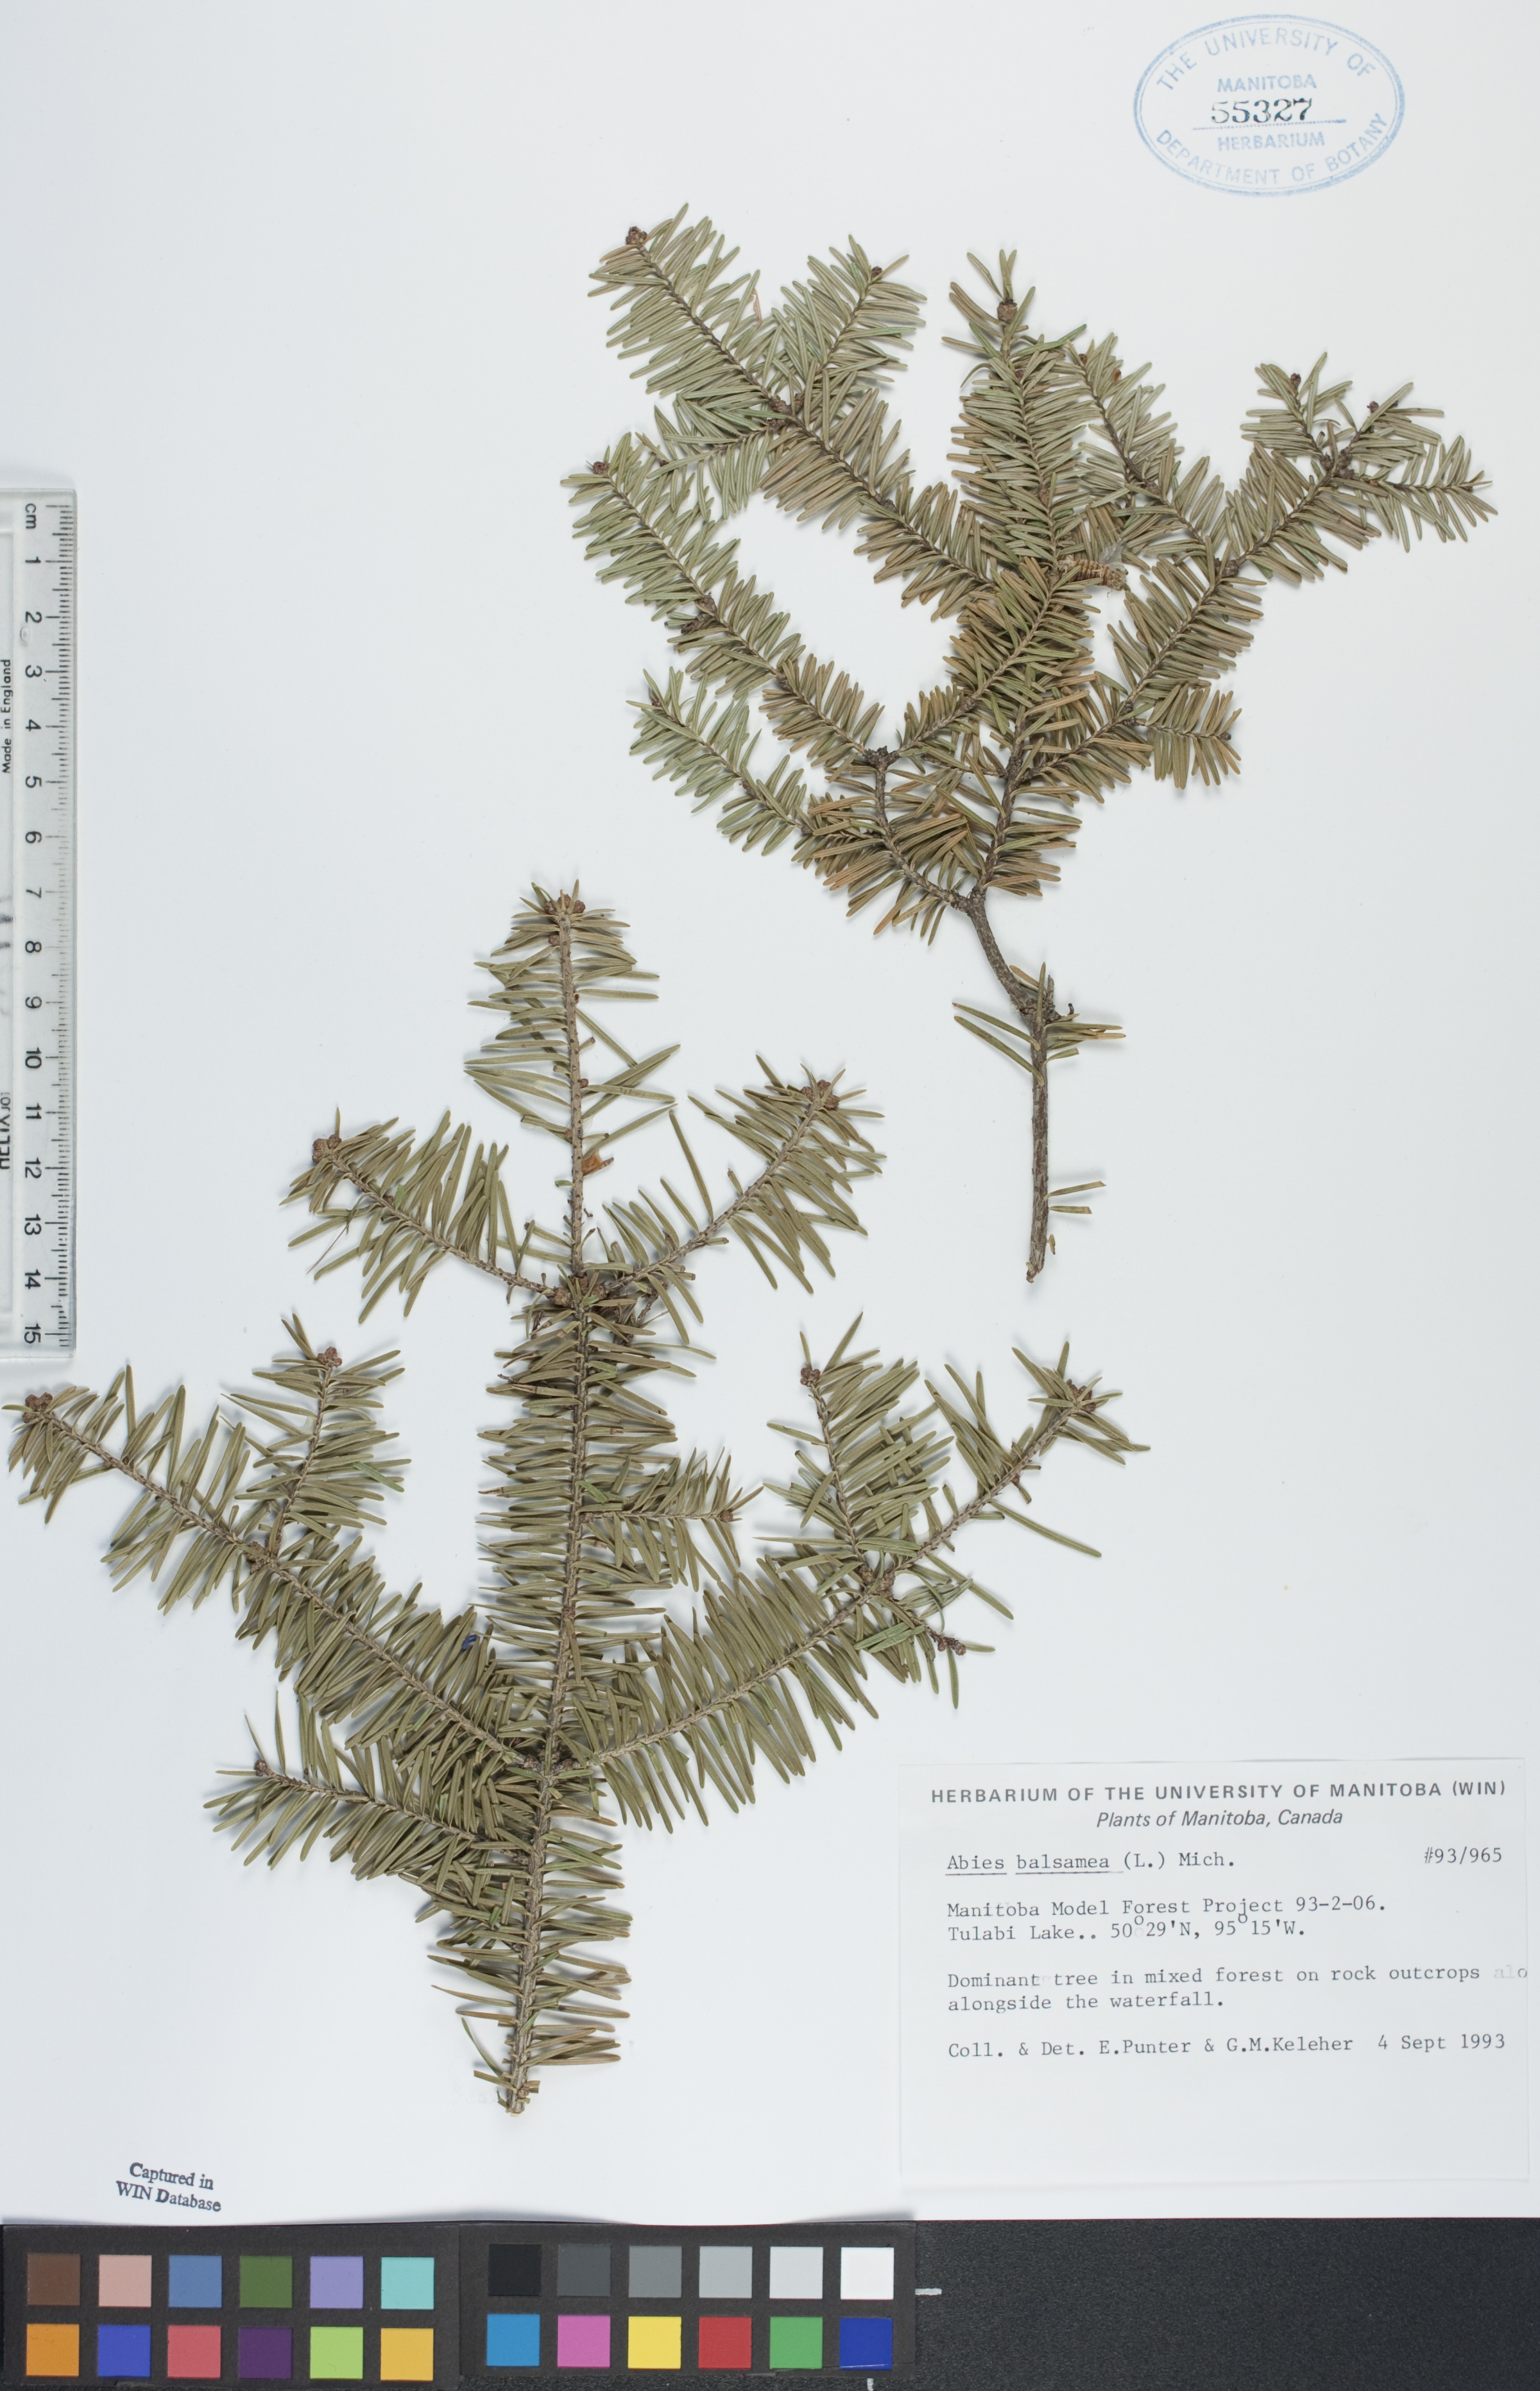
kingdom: Plantae
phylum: Tracheophyta
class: Pinopsida
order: Pinales
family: Pinaceae
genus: Abies
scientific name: Abies balsamea
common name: Balsam fir
